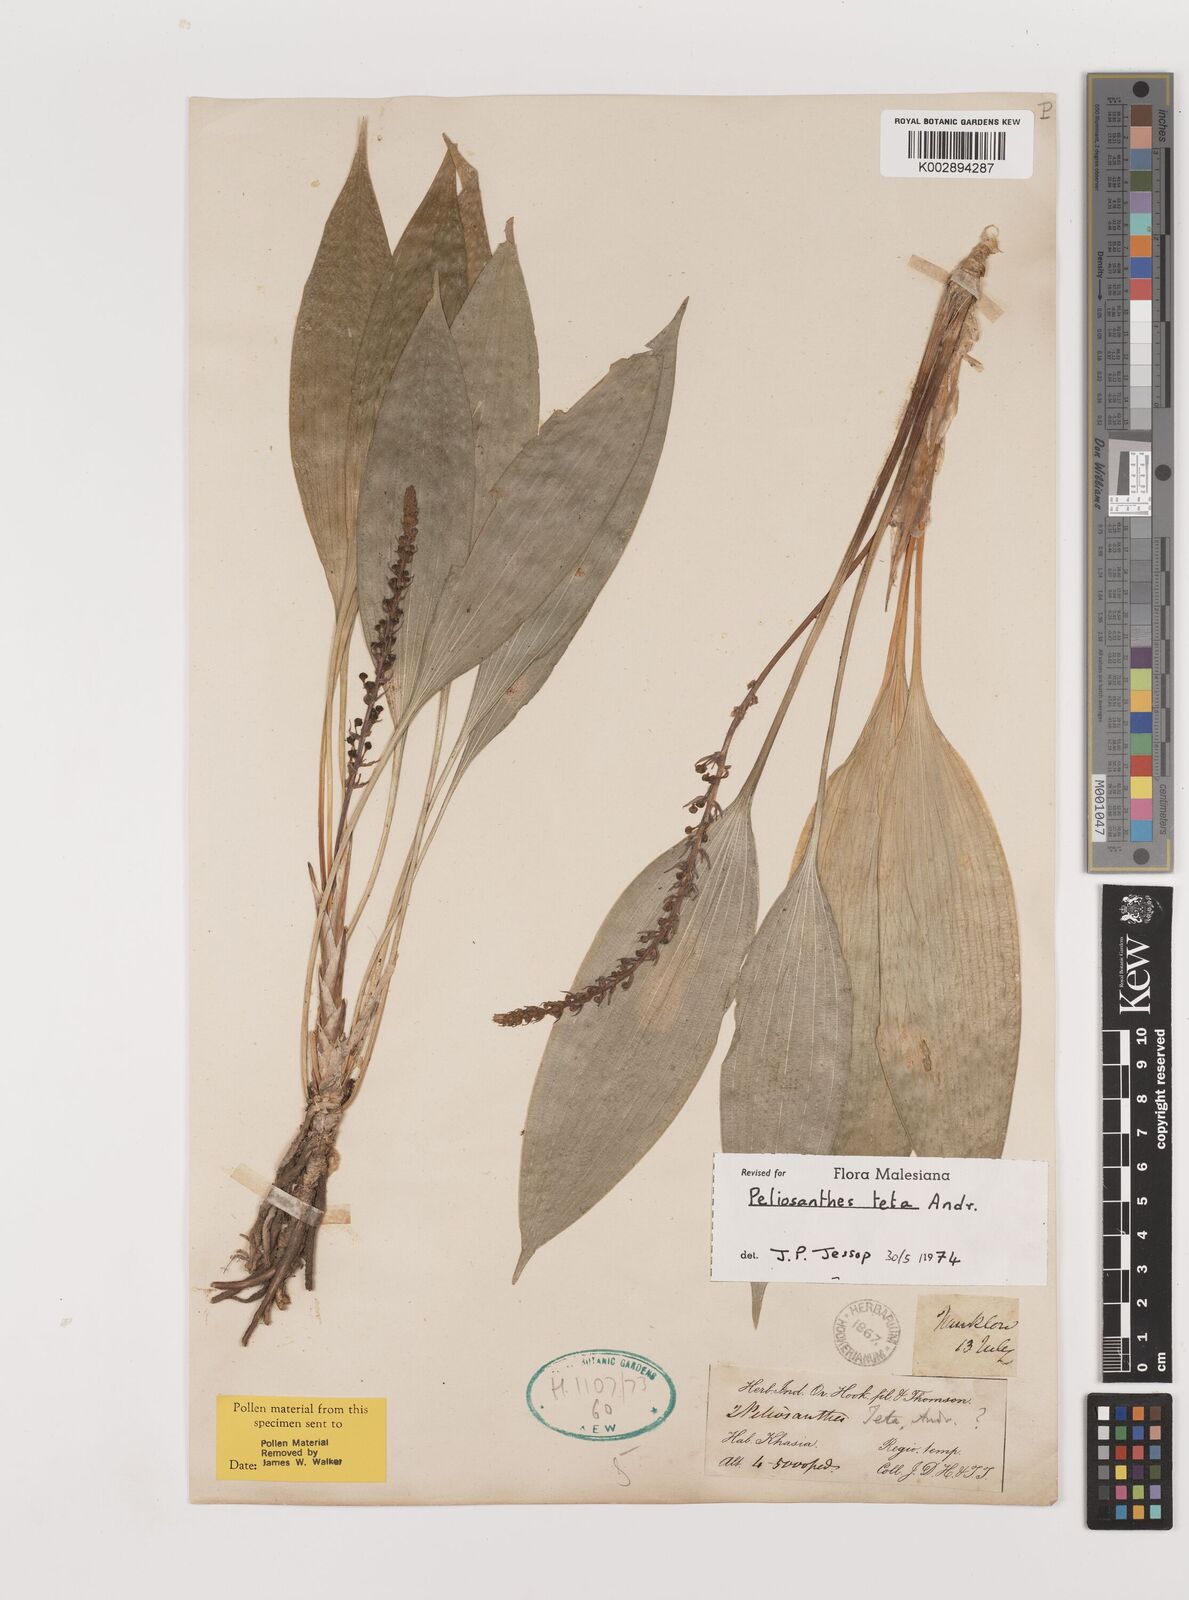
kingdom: Plantae
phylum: Tracheophyta
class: Liliopsida
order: Asparagales
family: Asparagaceae
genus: Peliosanthes
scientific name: Peliosanthes teta
